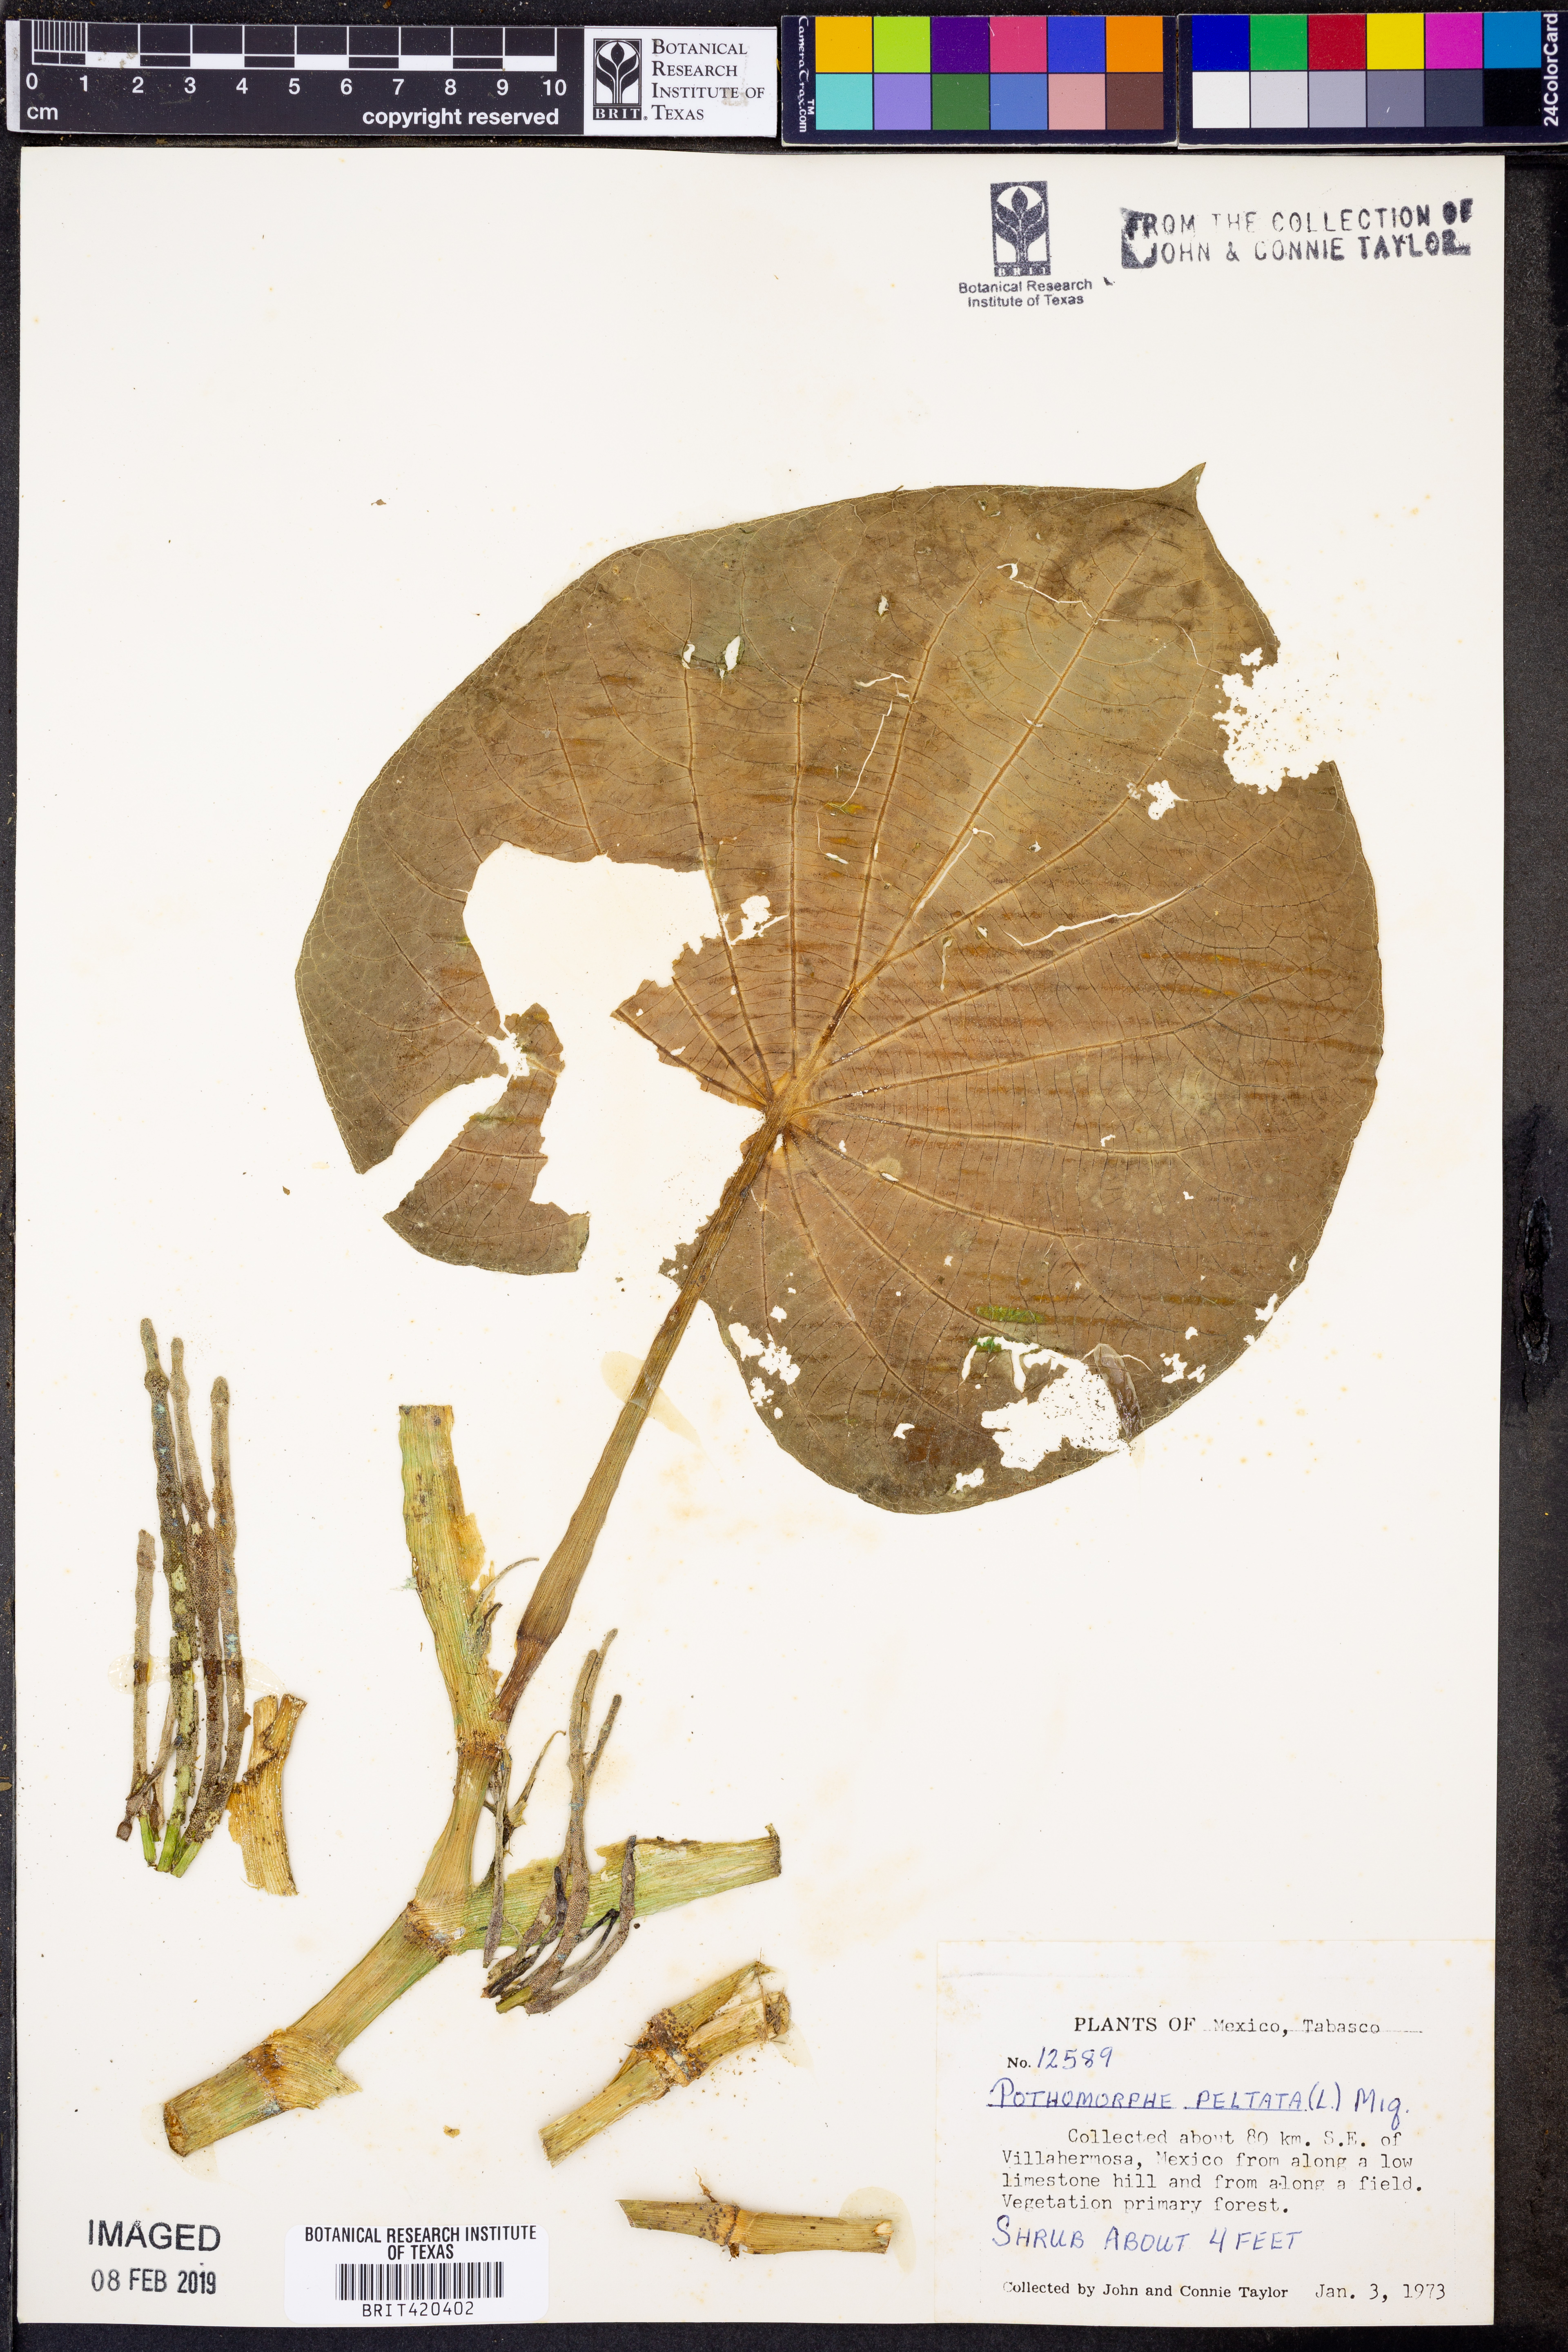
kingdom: Plantae
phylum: Tracheophyta
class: Magnoliopsida
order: Piperales
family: Piperaceae
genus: Piper
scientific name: Piper peltatum
